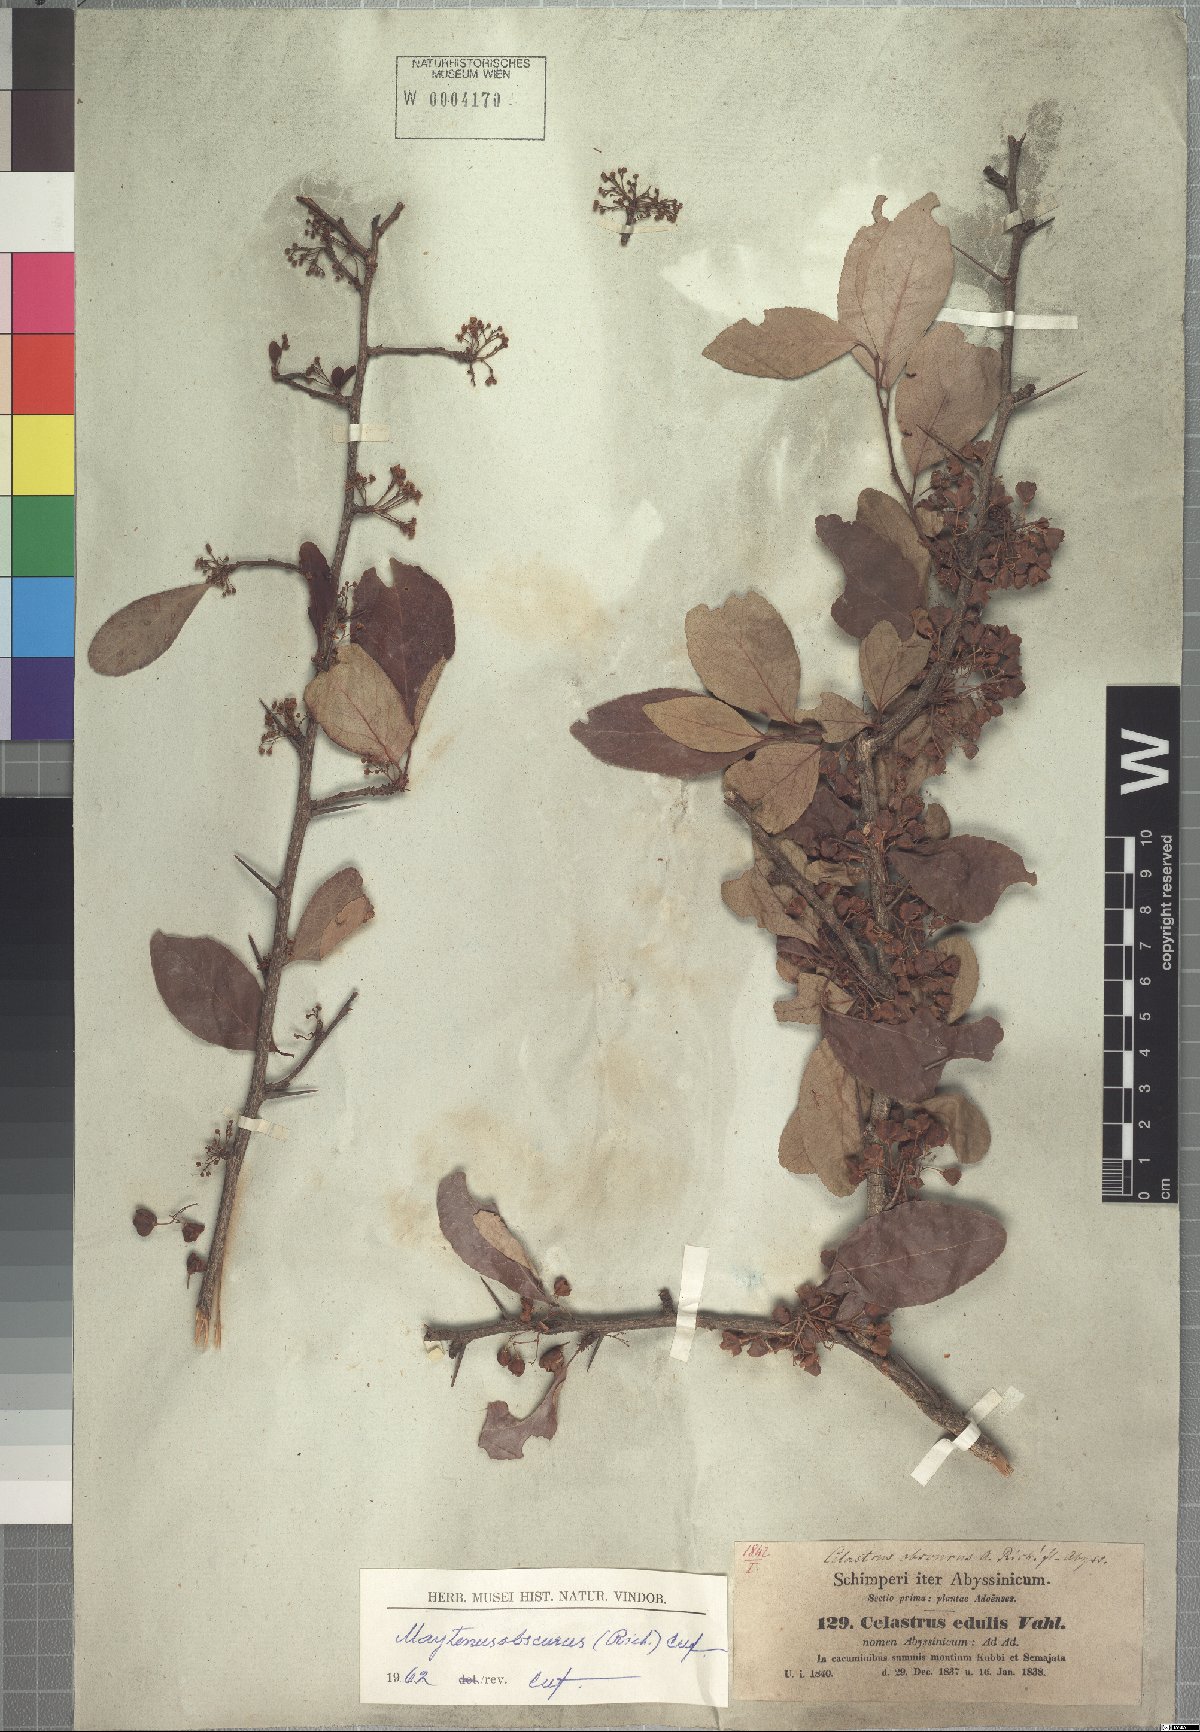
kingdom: Plantae
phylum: Tracheophyta
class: Magnoliopsida
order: Celastrales
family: Celastraceae
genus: Gymnosporia
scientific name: Gymnosporia obscura
